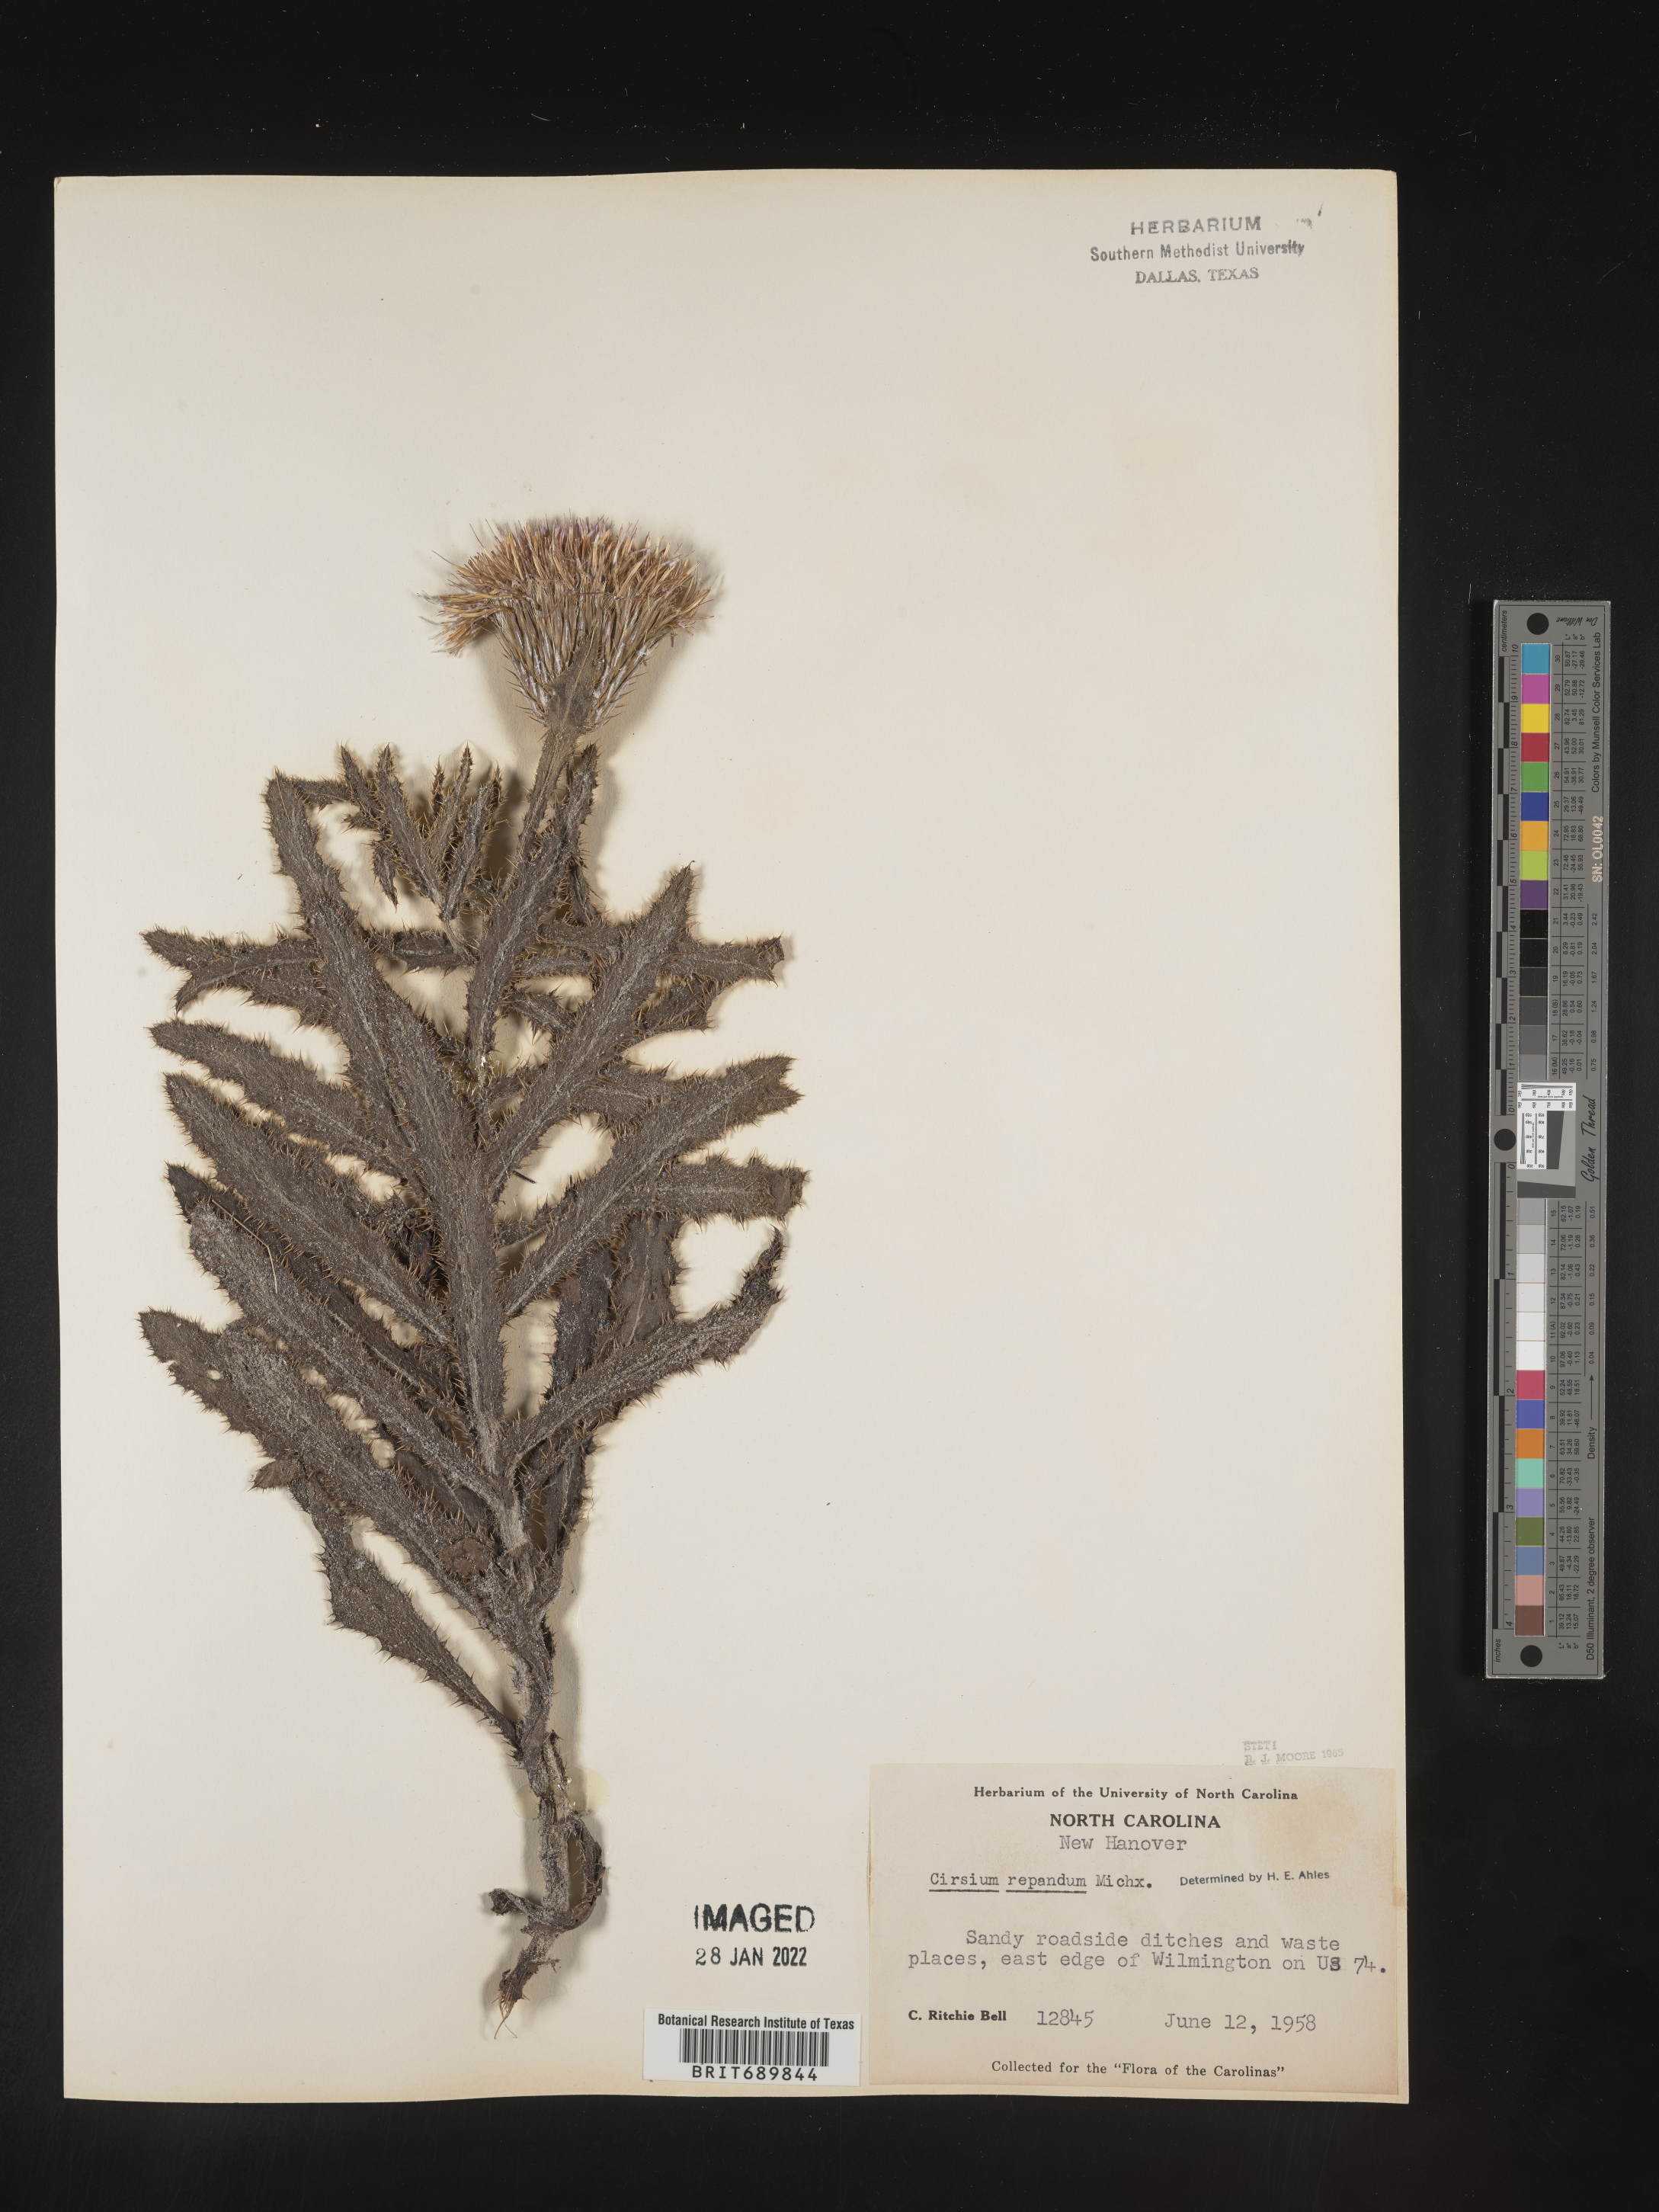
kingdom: Plantae
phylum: Tracheophyta
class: Magnoliopsida
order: Asterales
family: Asteraceae
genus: Cirsium
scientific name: Cirsium repandum
